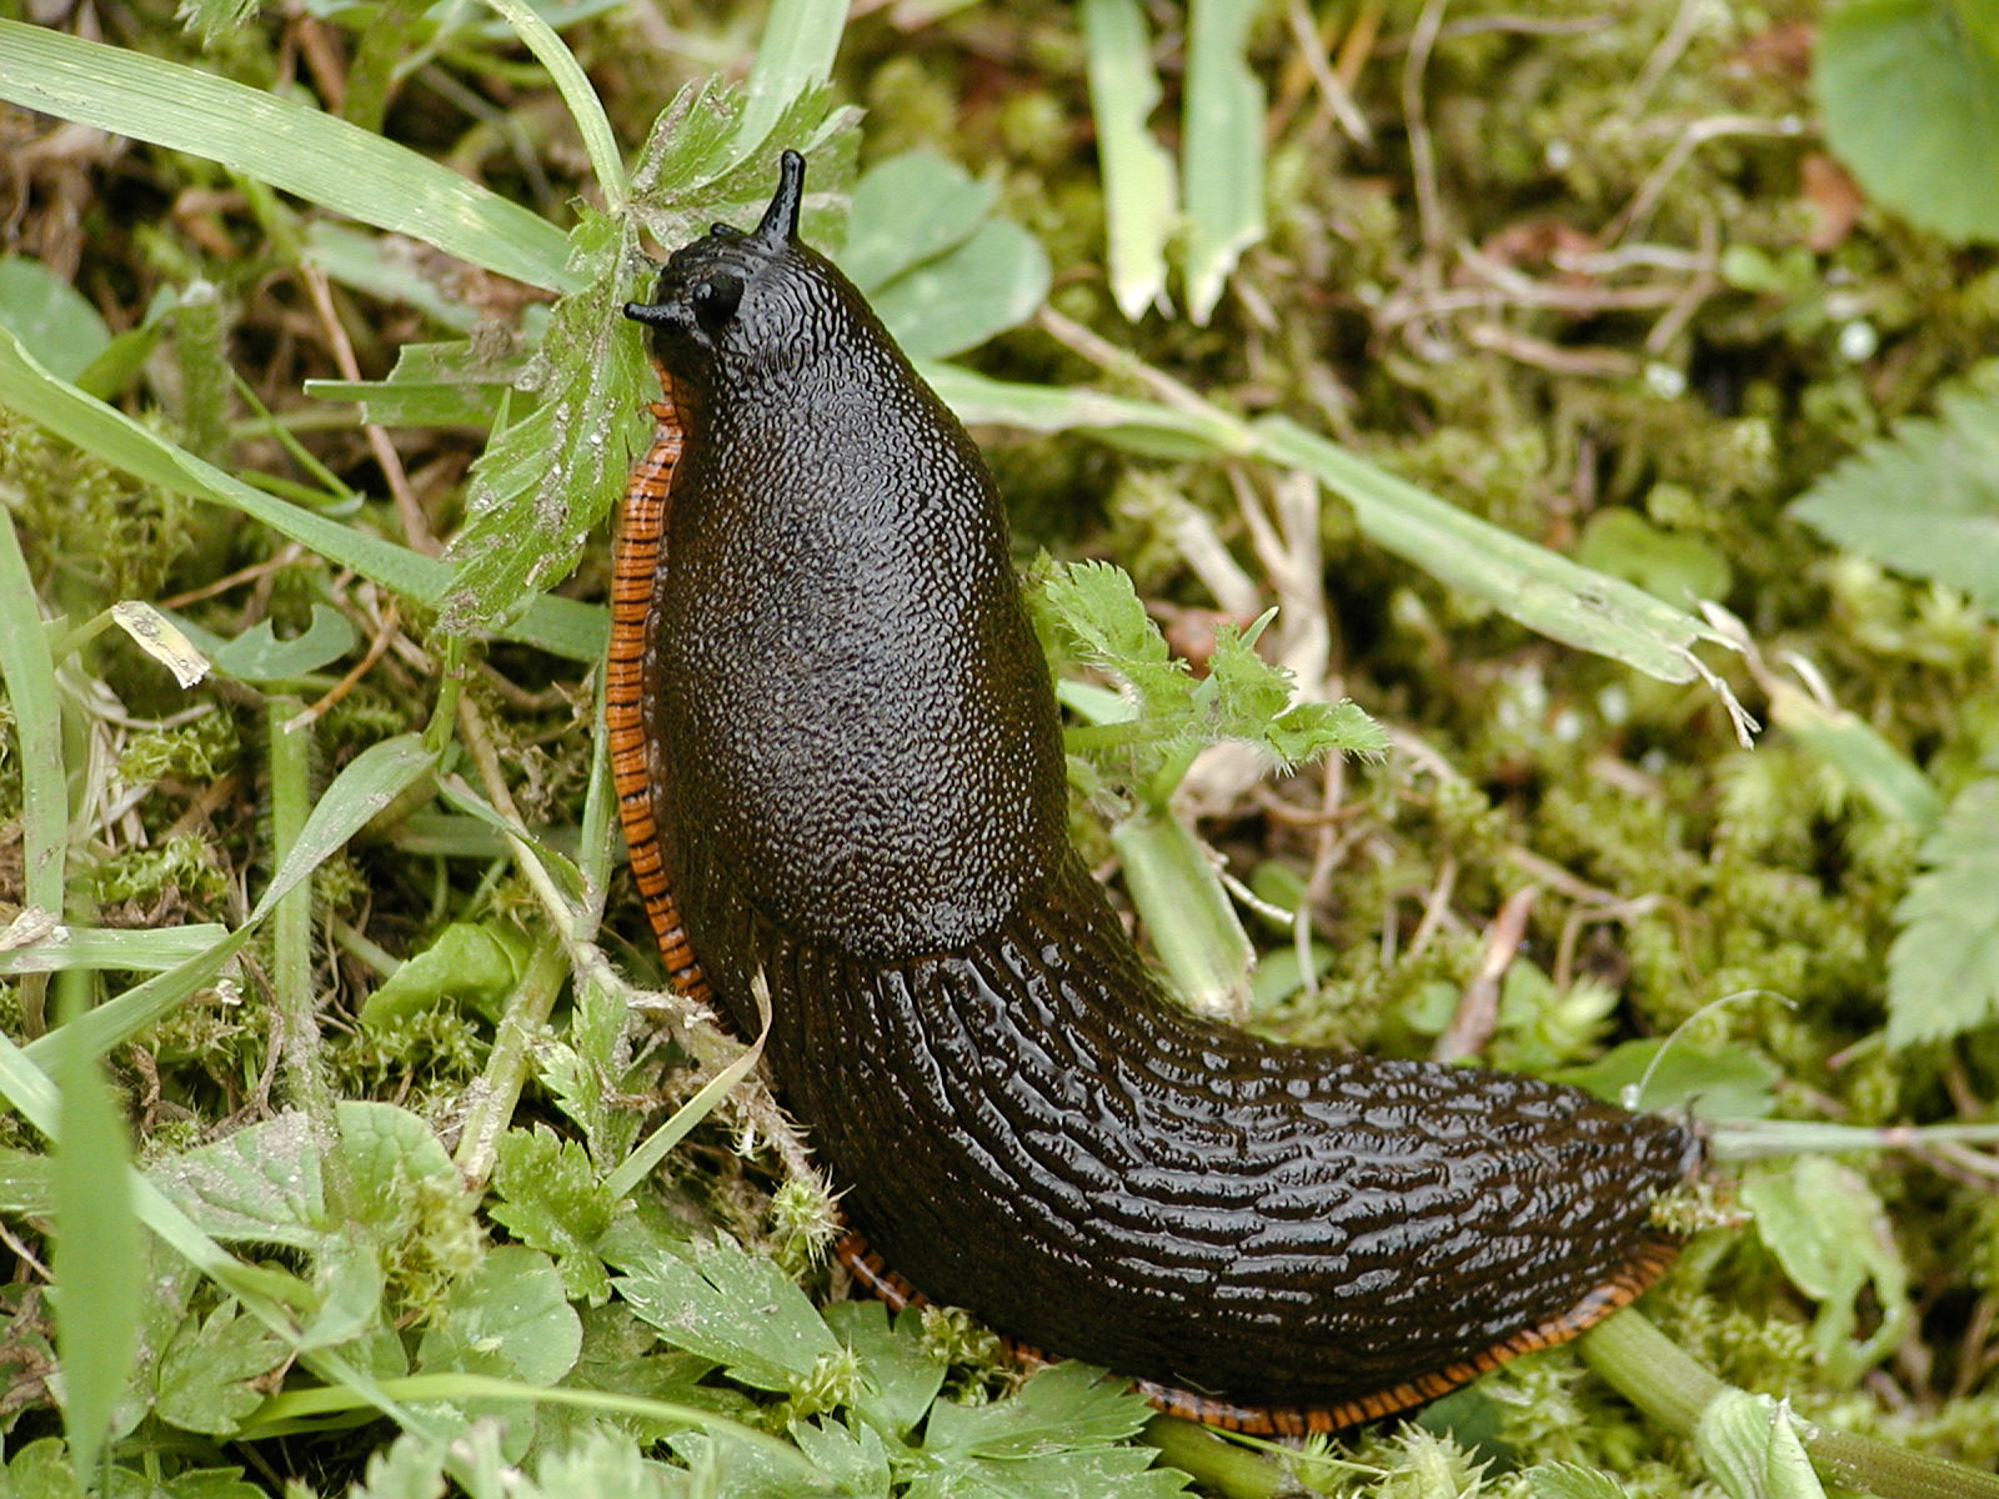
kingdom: Animalia
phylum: Mollusca
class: Gastropoda
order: Stylommatophora
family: Arionidae
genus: Arion
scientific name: Arion obesoductus
